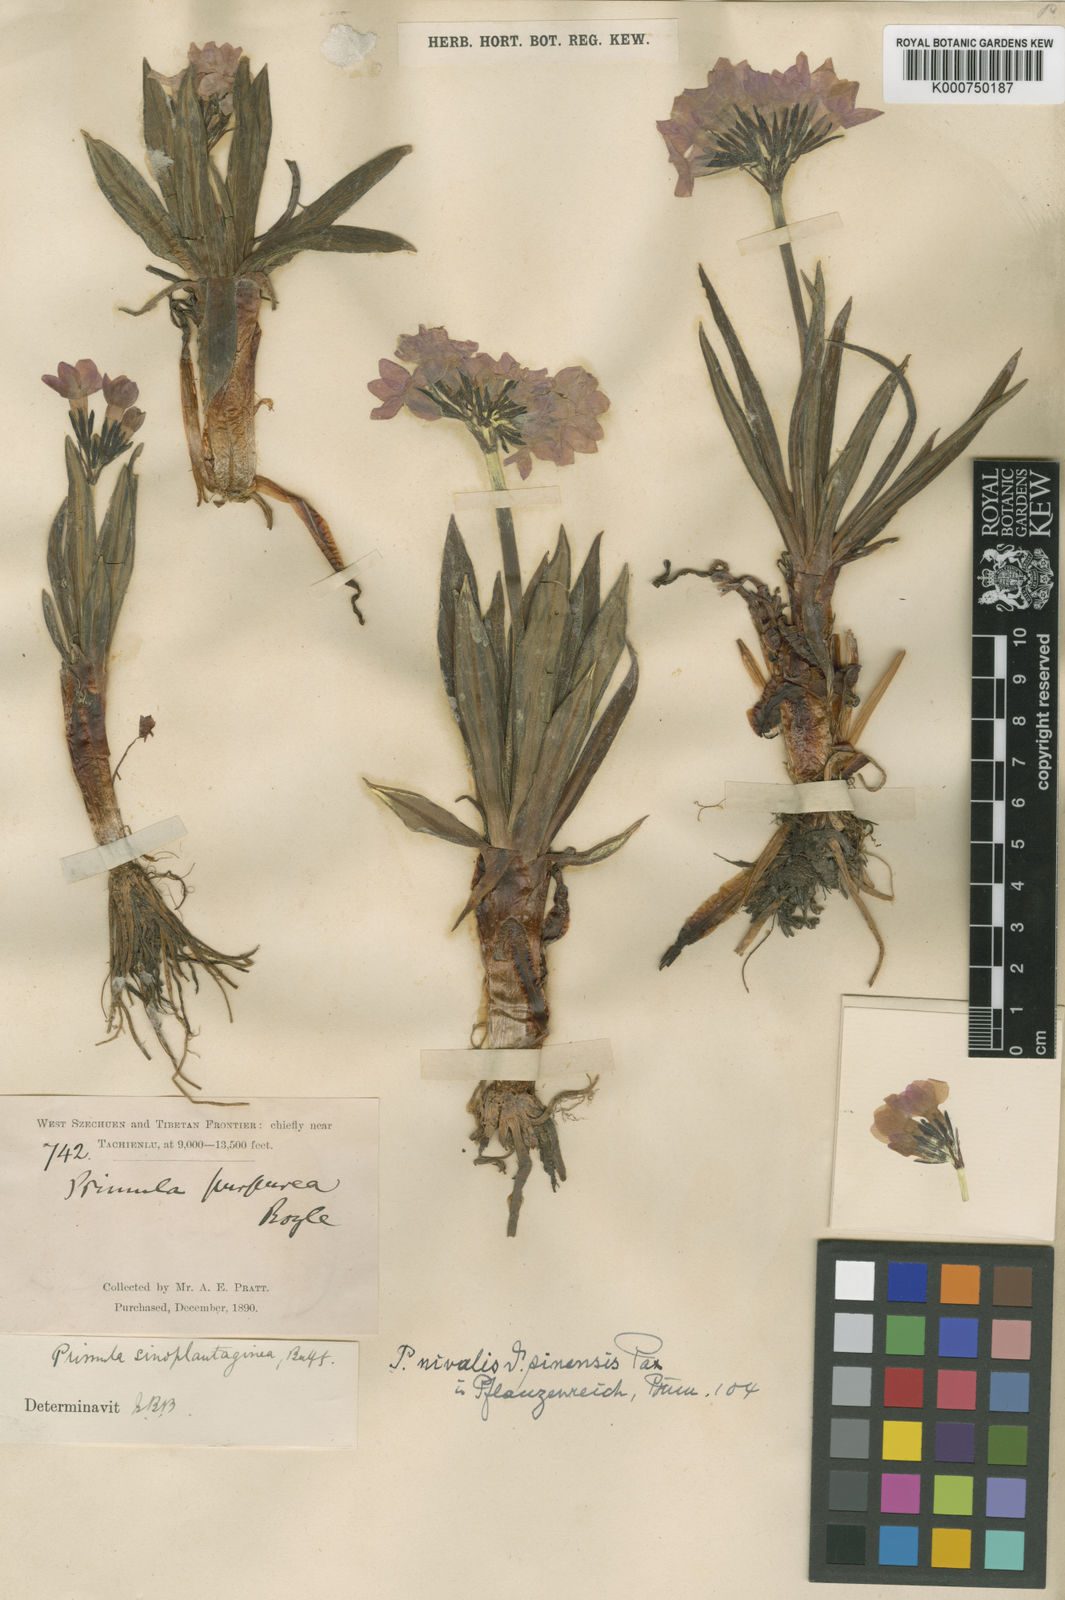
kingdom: Plantae
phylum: Tracheophyta
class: Magnoliopsida
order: Ericales
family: Primulaceae
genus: Primula
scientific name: Primula
